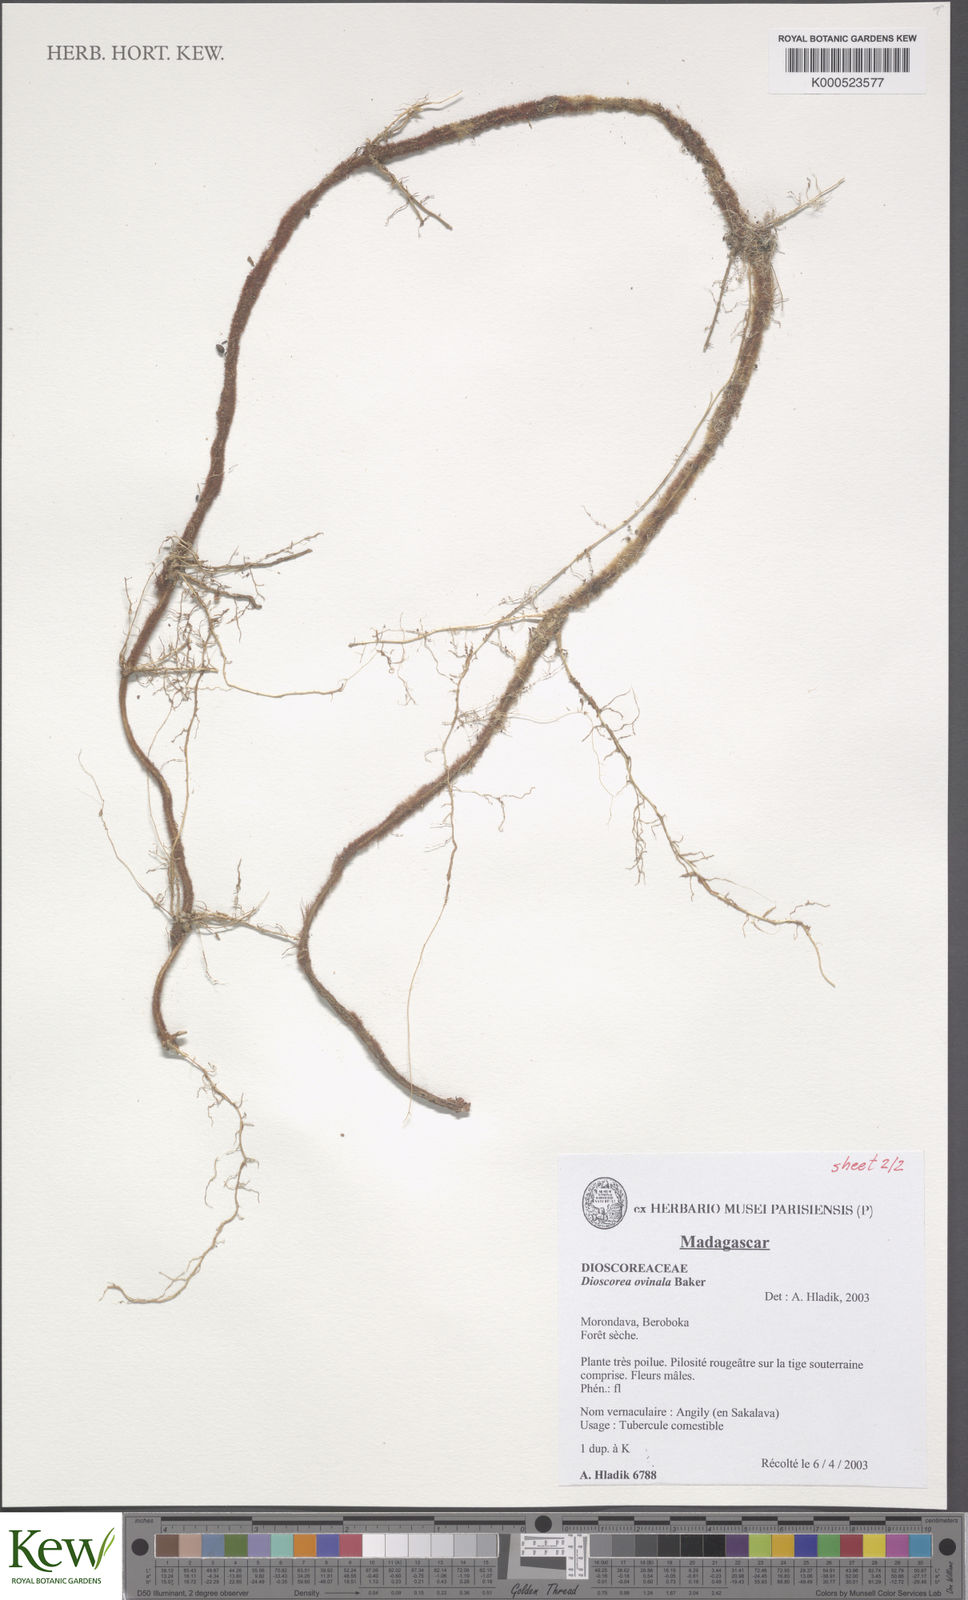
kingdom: Plantae
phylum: Tracheophyta
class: Liliopsida
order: Dioscoreales
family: Dioscoreaceae
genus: Dioscorea
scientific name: Dioscorea ovinala
